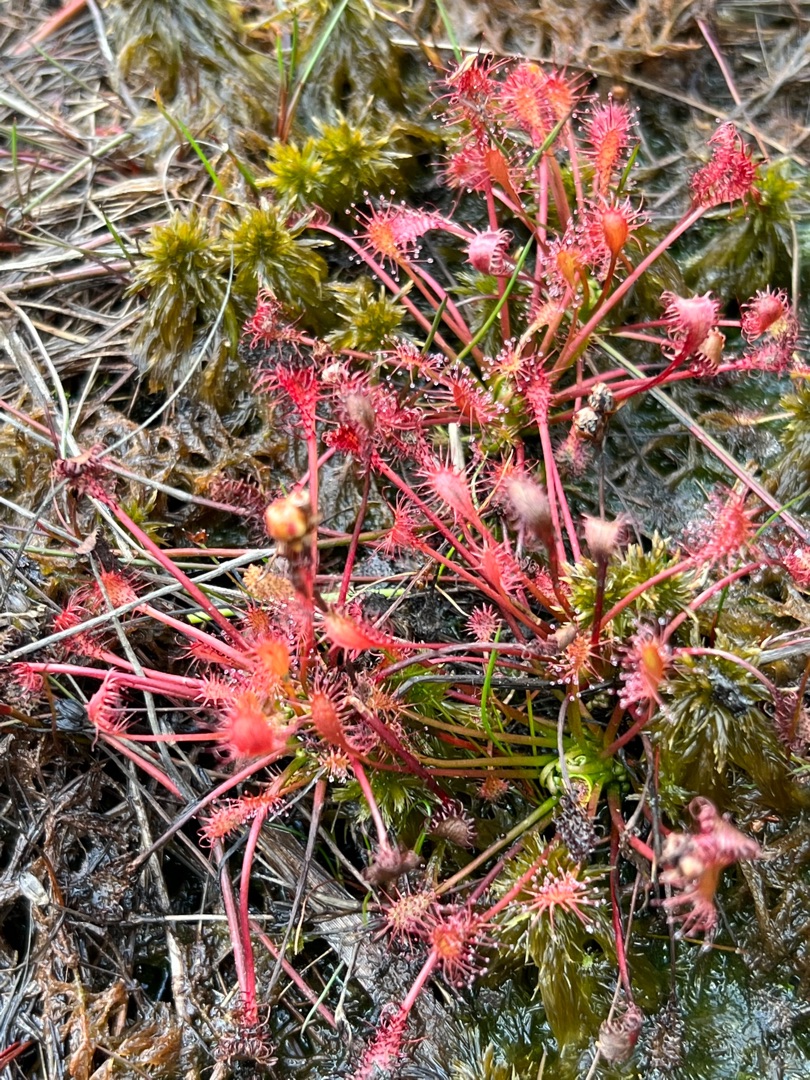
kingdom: Plantae
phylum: Tracheophyta
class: Magnoliopsida
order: Caryophyllales
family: Droseraceae
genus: Drosera
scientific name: Drosera intermedia
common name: Liden soldug
